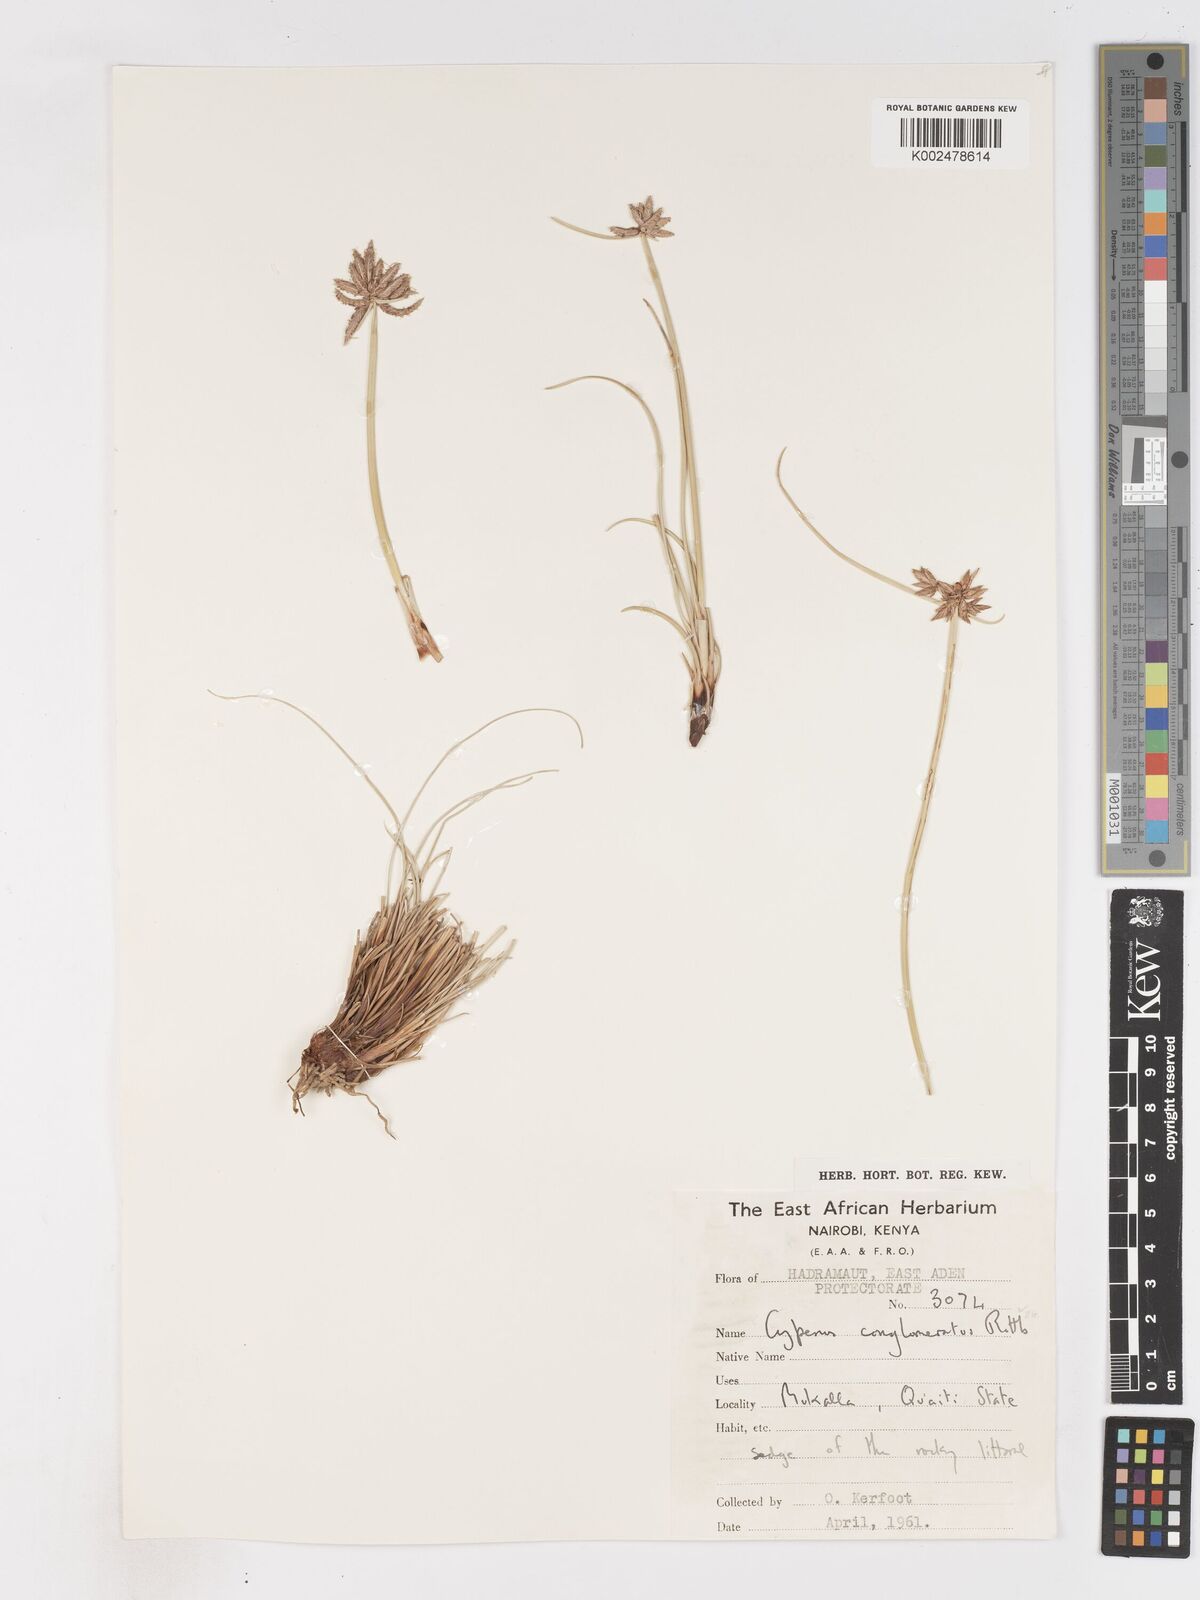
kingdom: Plantae
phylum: Tracheophyta
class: Liliopsida
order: Poales
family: Cyperaceae
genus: Cyperus
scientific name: Cyperus conglomeratus
